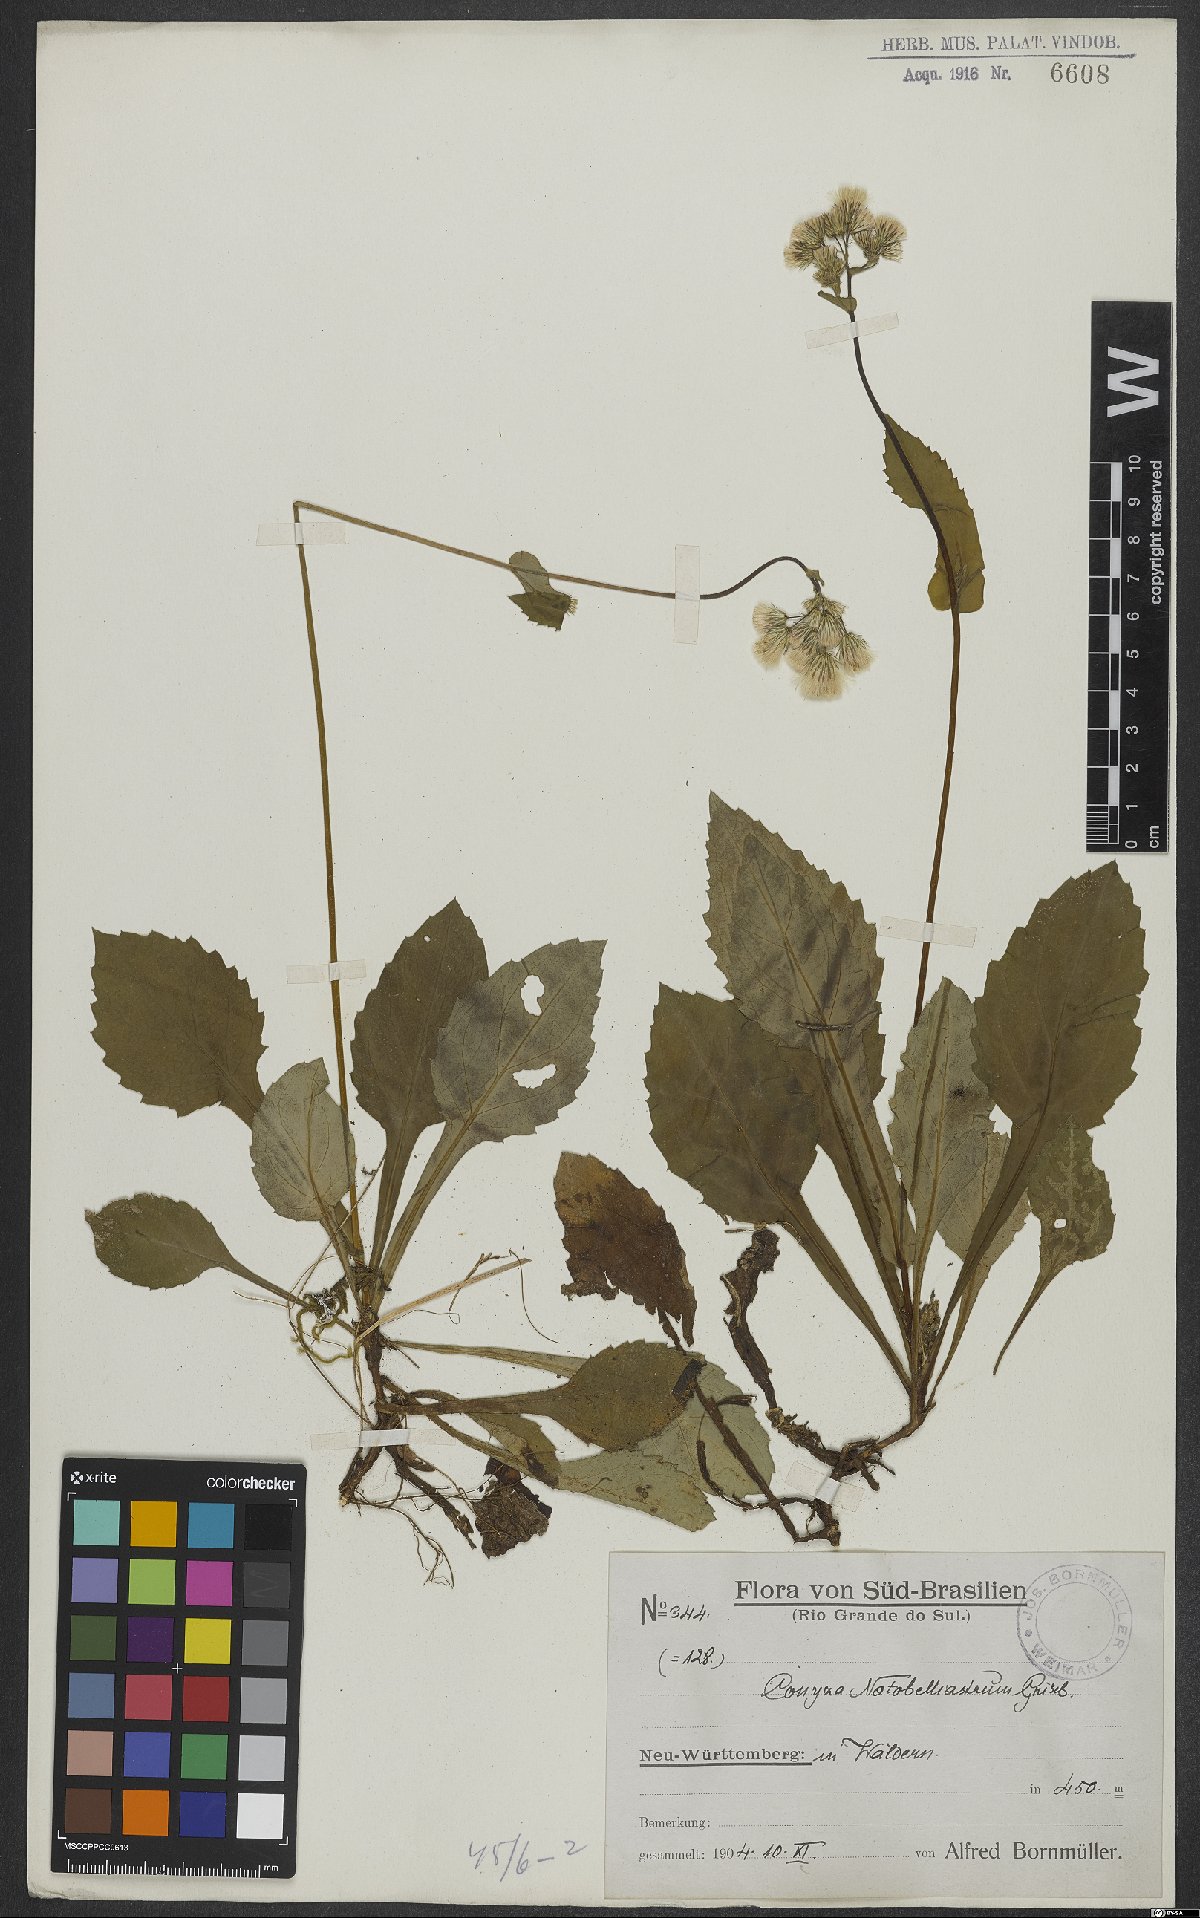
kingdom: Plantae
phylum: Tracheophyta
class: Magnoliopsida
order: Asterales
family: Asteraceae
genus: Exostigma
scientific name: Exostigma notobellidiastrum
